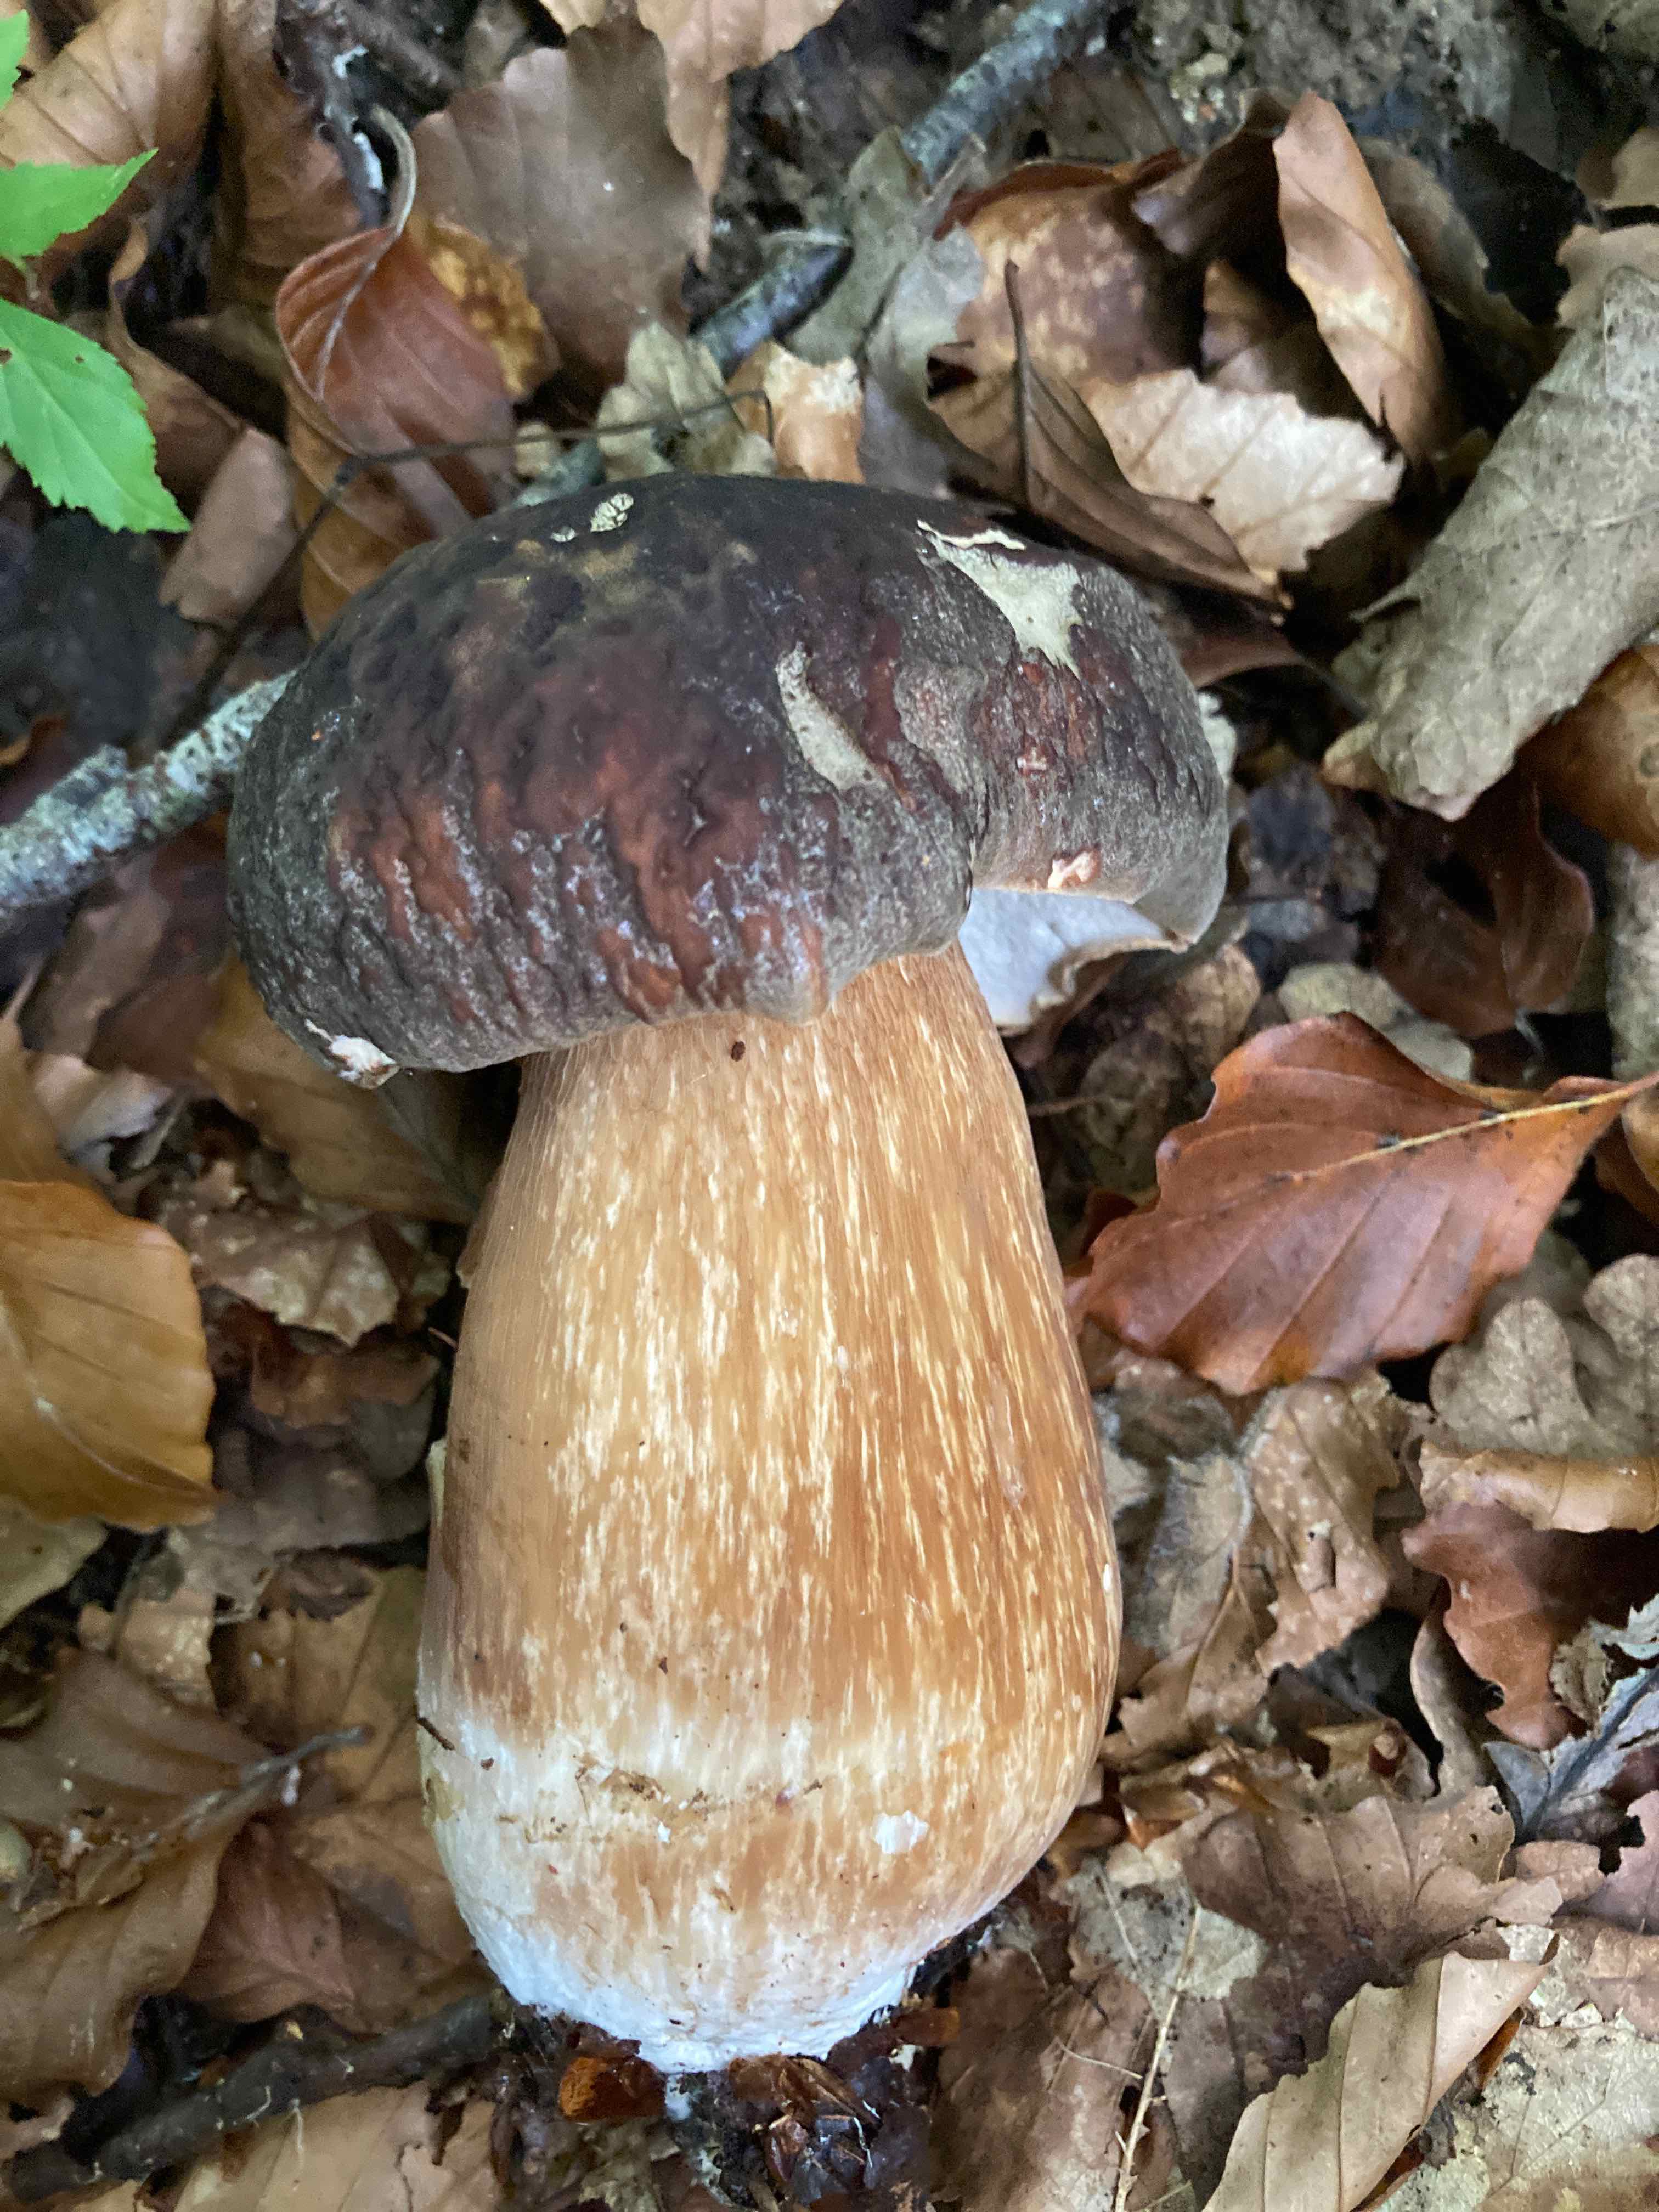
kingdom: Fungi
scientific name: Fungi
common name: bronze-rørhat
